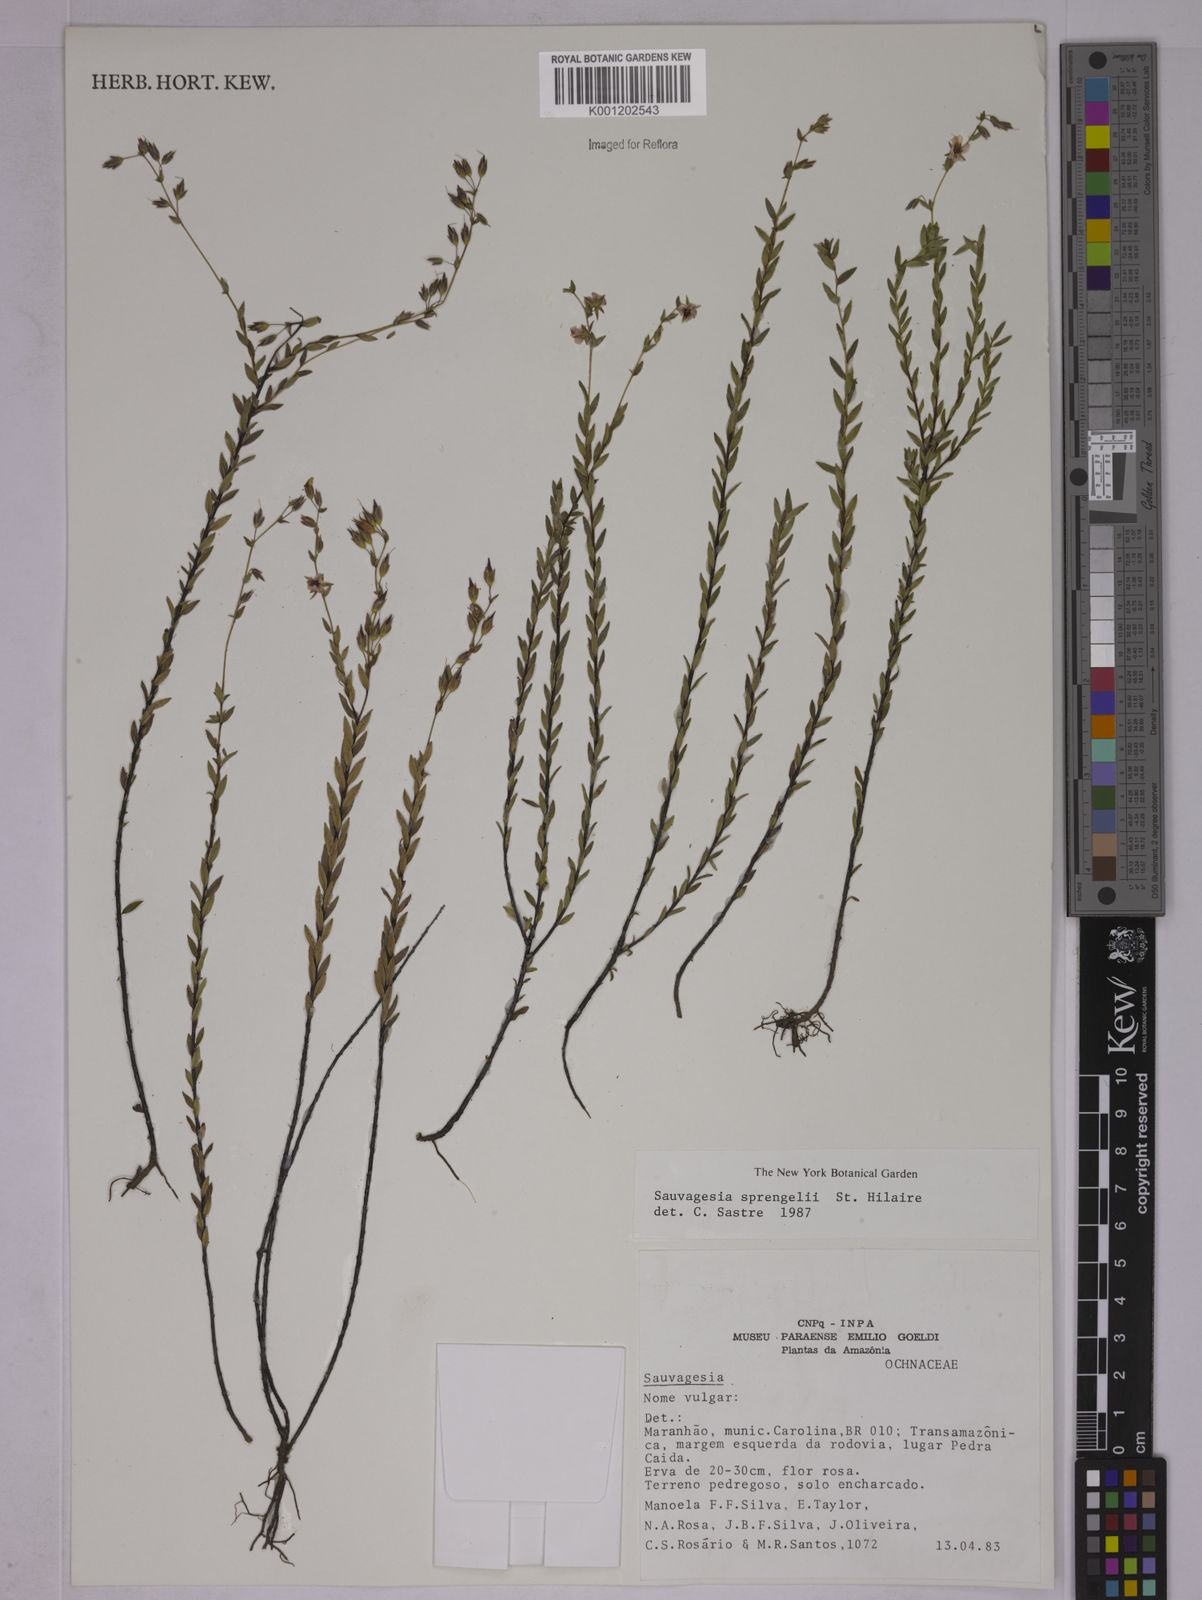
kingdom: Plantae
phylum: Tracheophyta
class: Magnoliopsida
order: Malpighiales
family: Ochnaceae
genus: Sauvagesia
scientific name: Sauvagesia sprengelii
